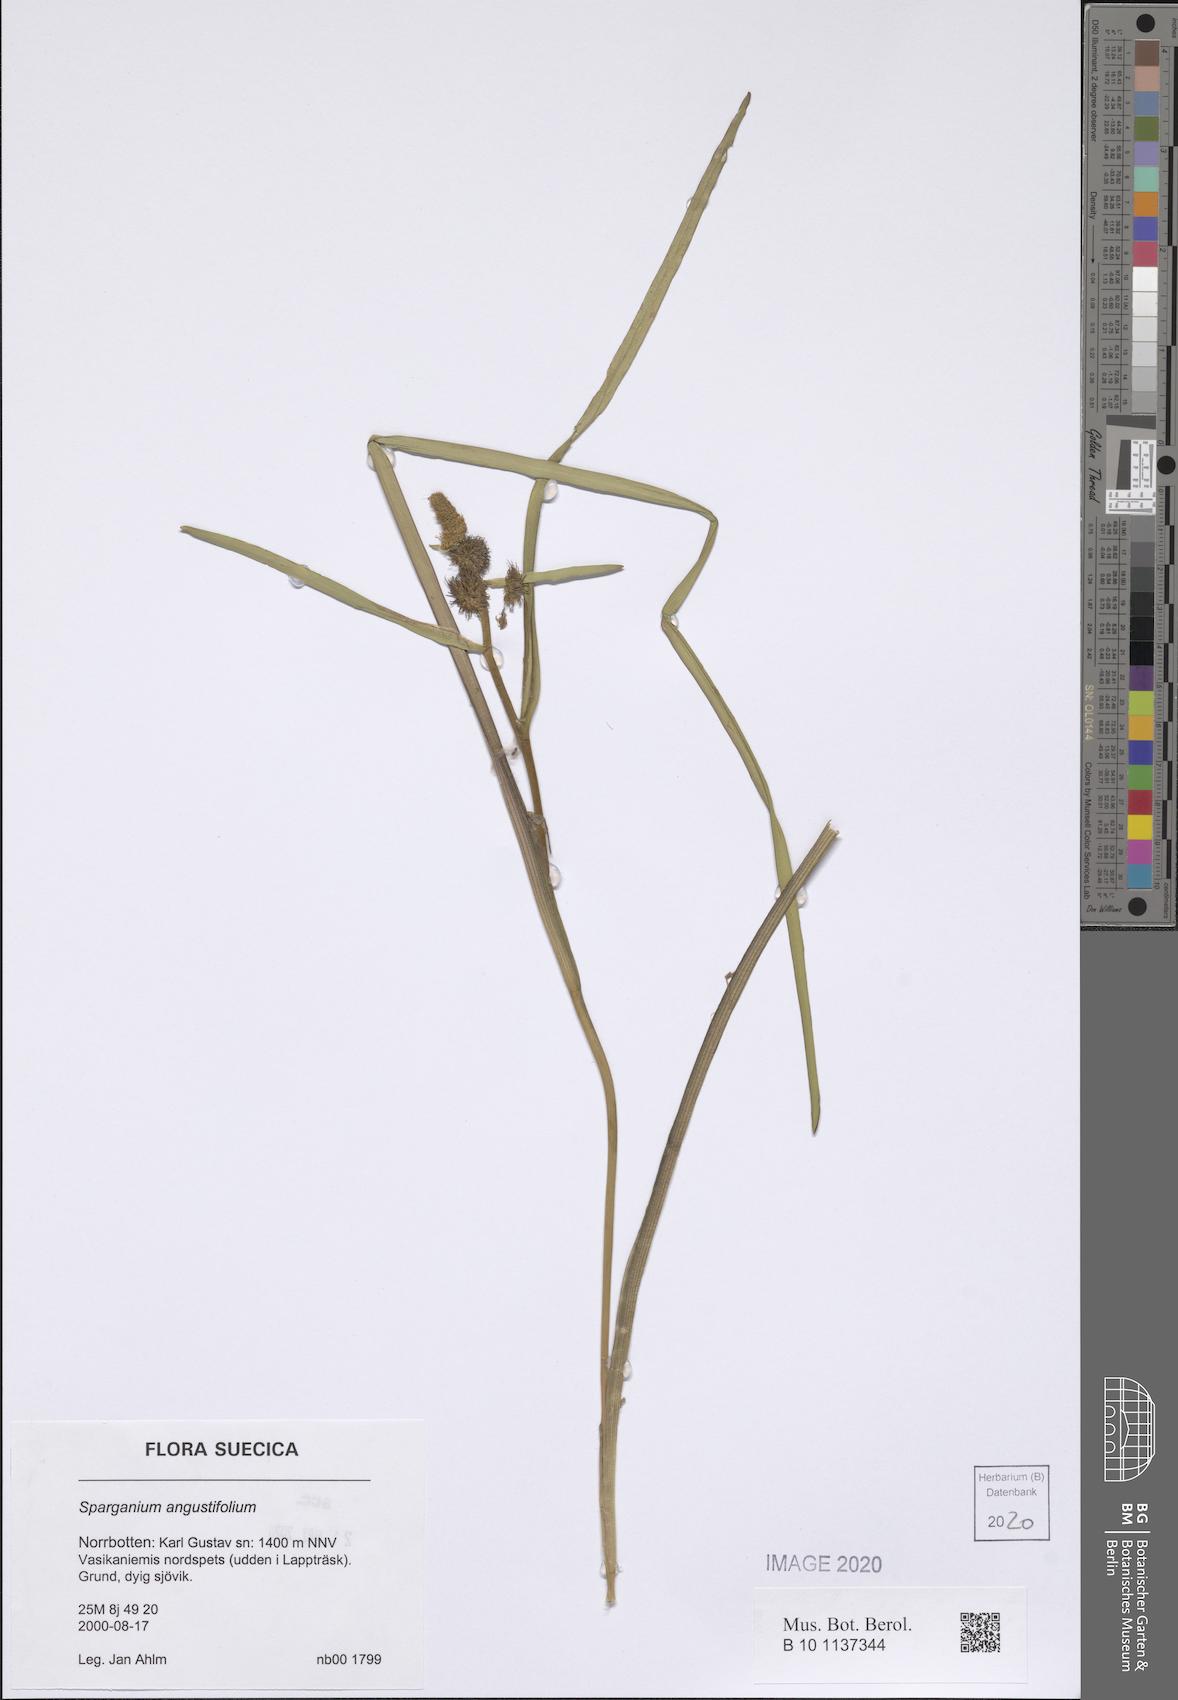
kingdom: Plantae
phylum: Tracheophyta
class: Liliopsida
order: Poales
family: Typhaceae
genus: Sparganium
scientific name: Sparganium angustifolium
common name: Floating bur-reed
